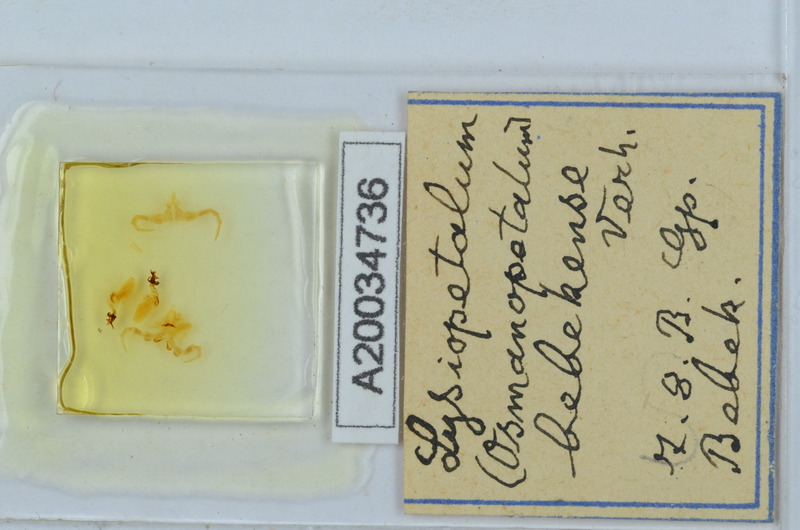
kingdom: Plantae
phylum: Tracheophyta
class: Magnoliopsida
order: Malvales
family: Sterculiaceae
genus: Lysiopetalum
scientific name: Lysiopetalum
